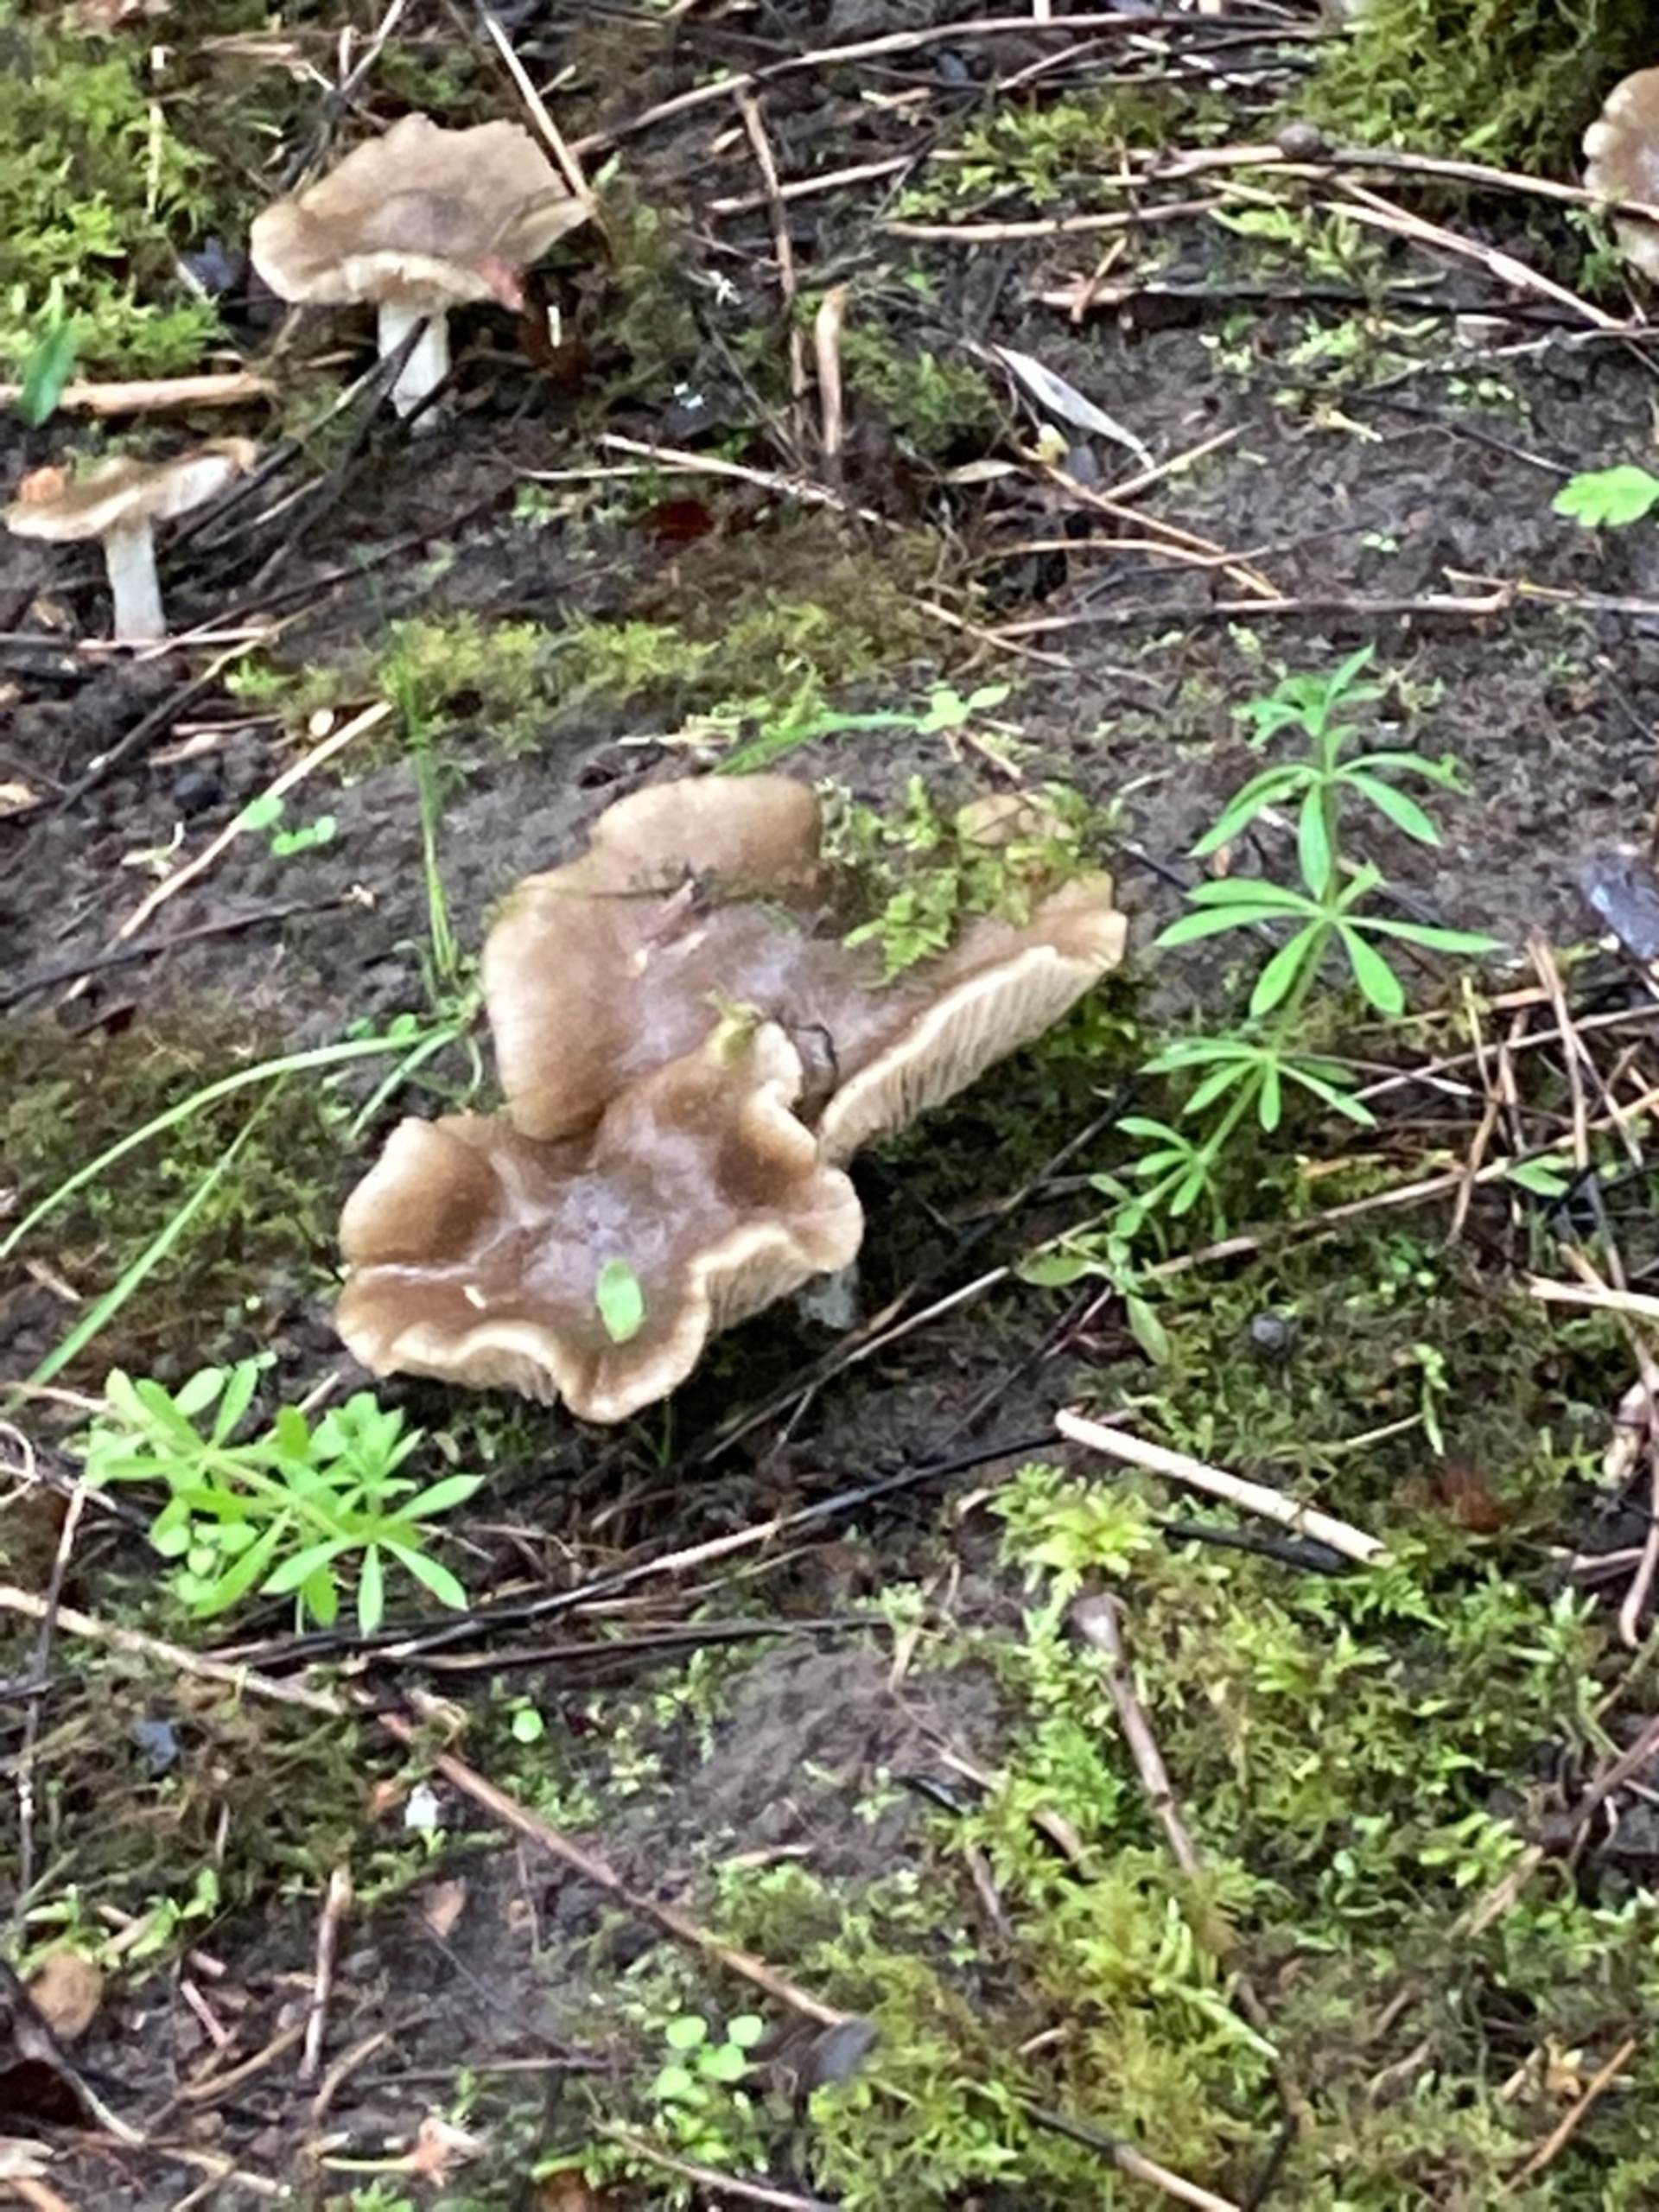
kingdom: Fungi
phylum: Basidiomycota
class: Agaricomycetes
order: Agaricales
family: Entolomataceae
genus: Entoloma
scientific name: Entoloma
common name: Rødblad
